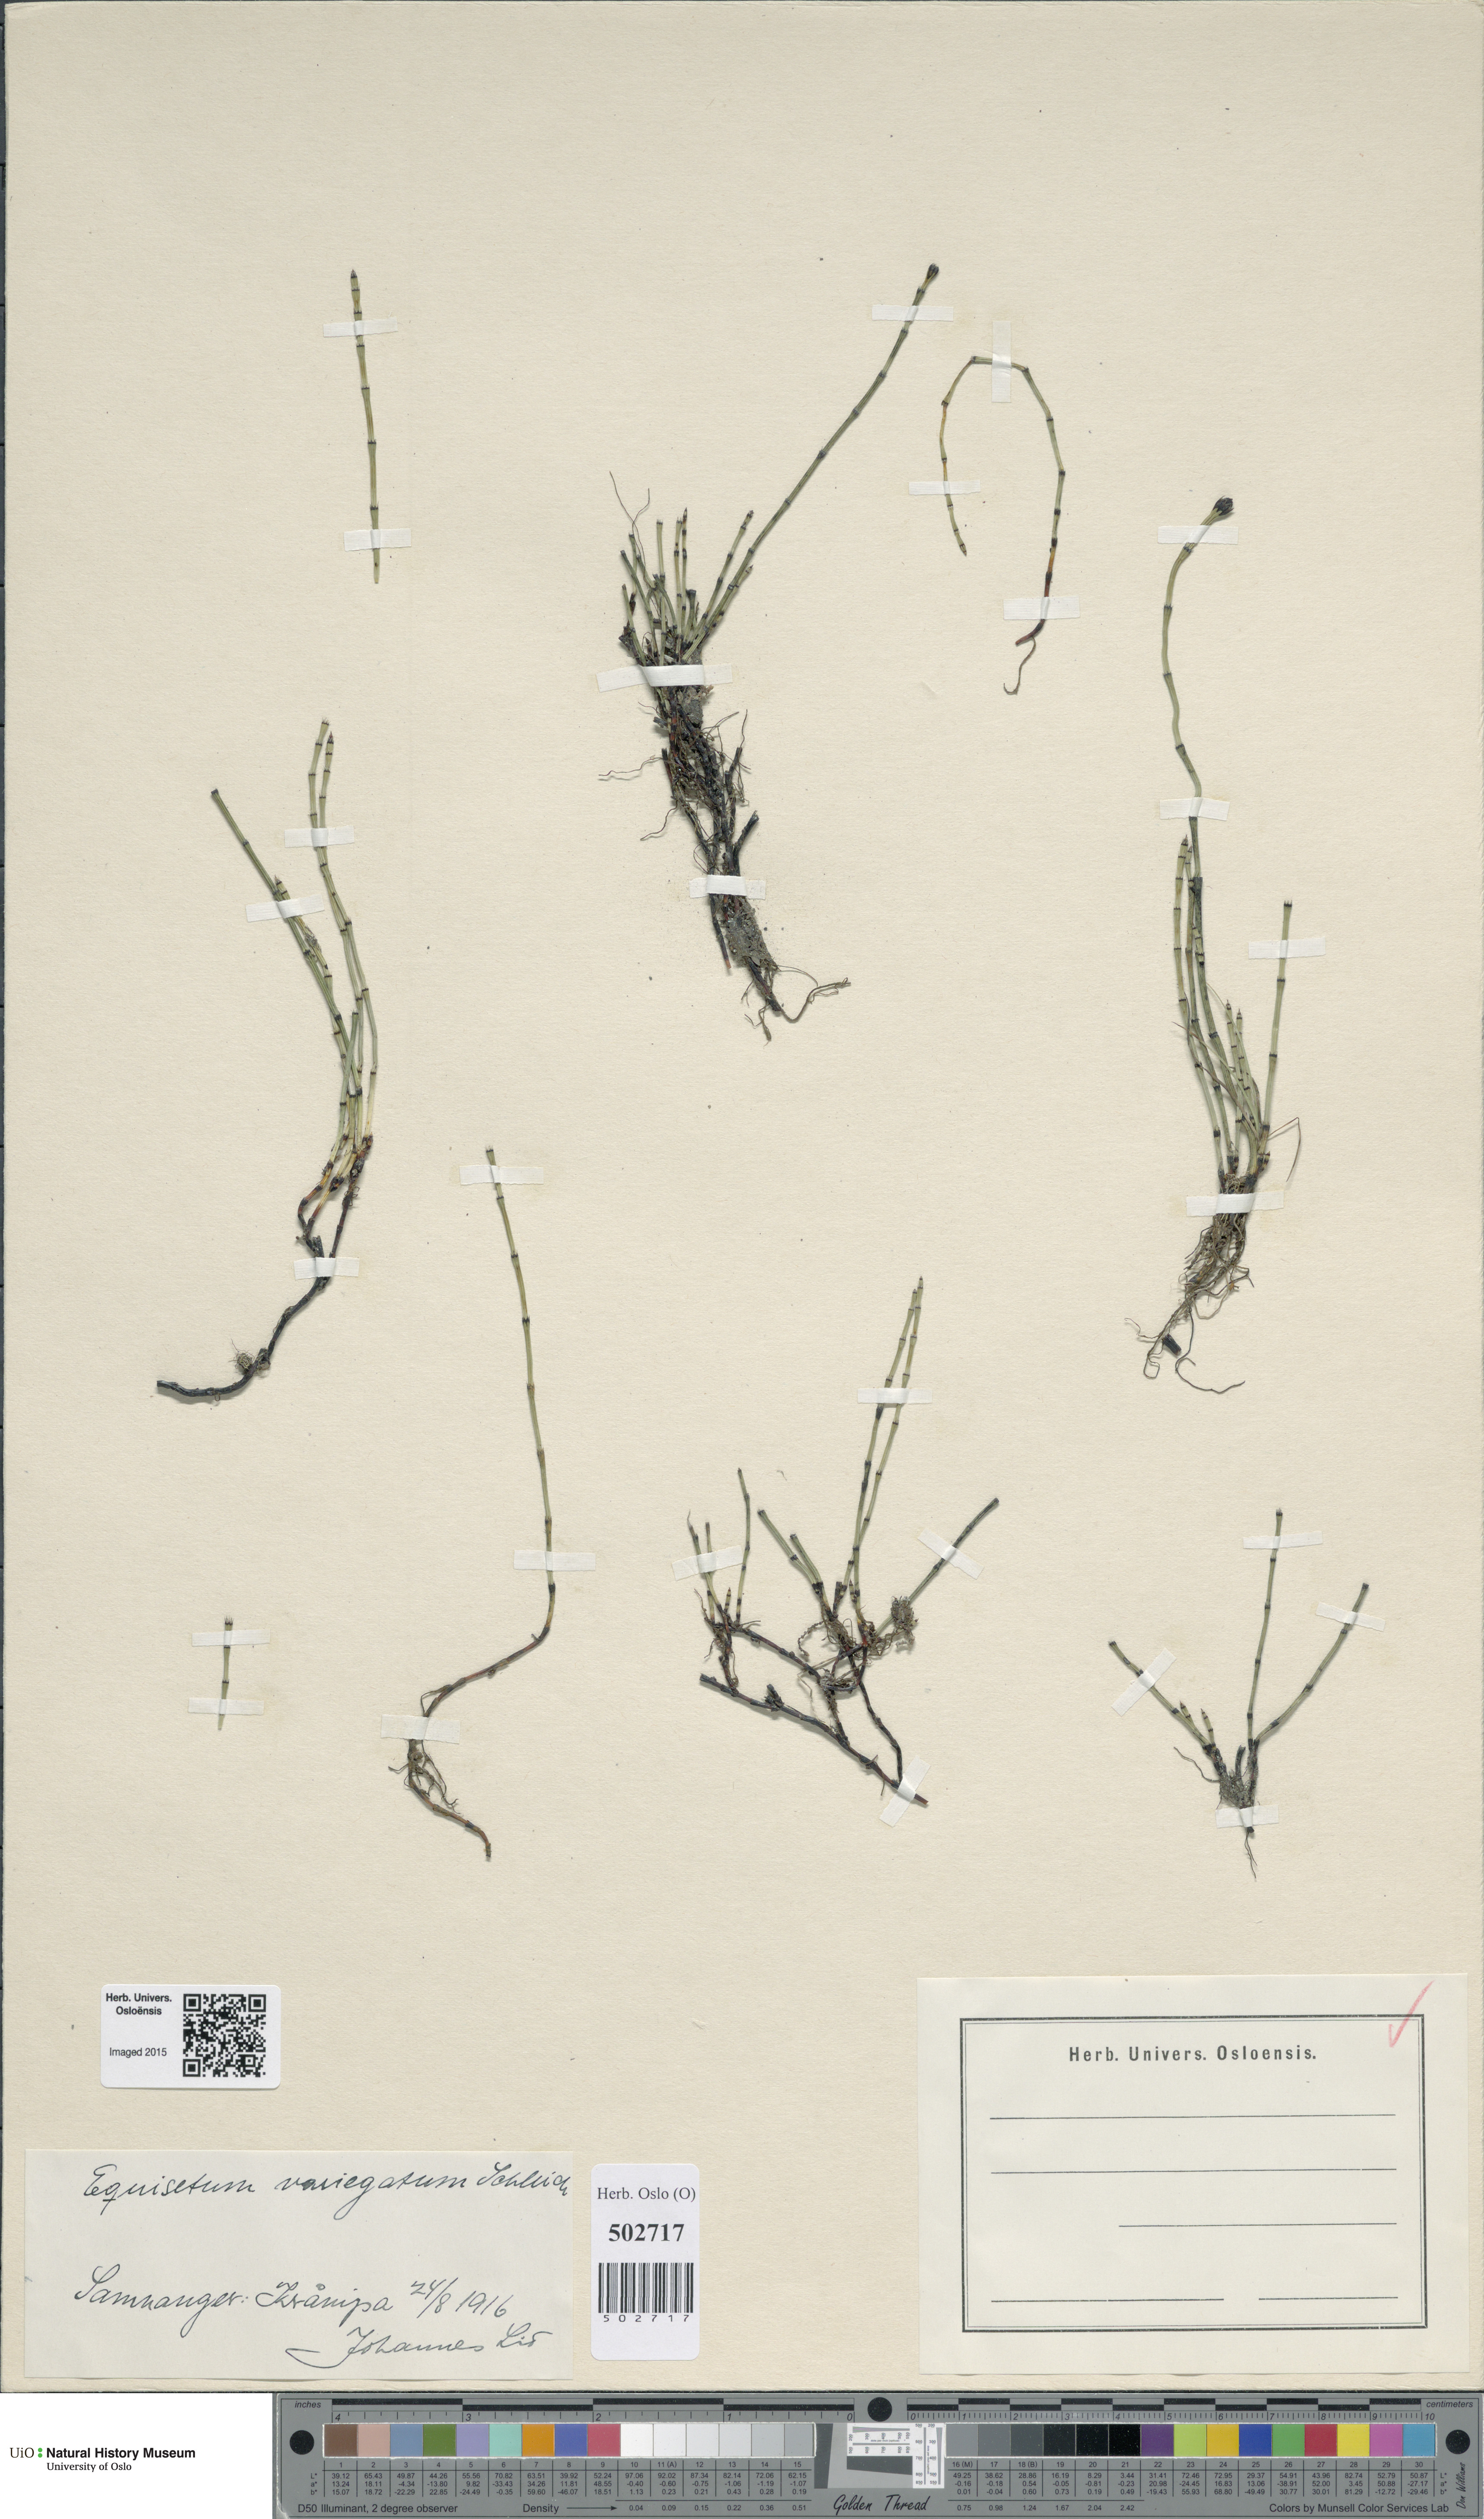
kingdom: Plantae
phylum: Tracheophyta
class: Polypodiopsida
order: Equisetales
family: Equisetaceae
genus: Equisetum
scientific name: Equisetum variegatum
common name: Variegated horsetail
